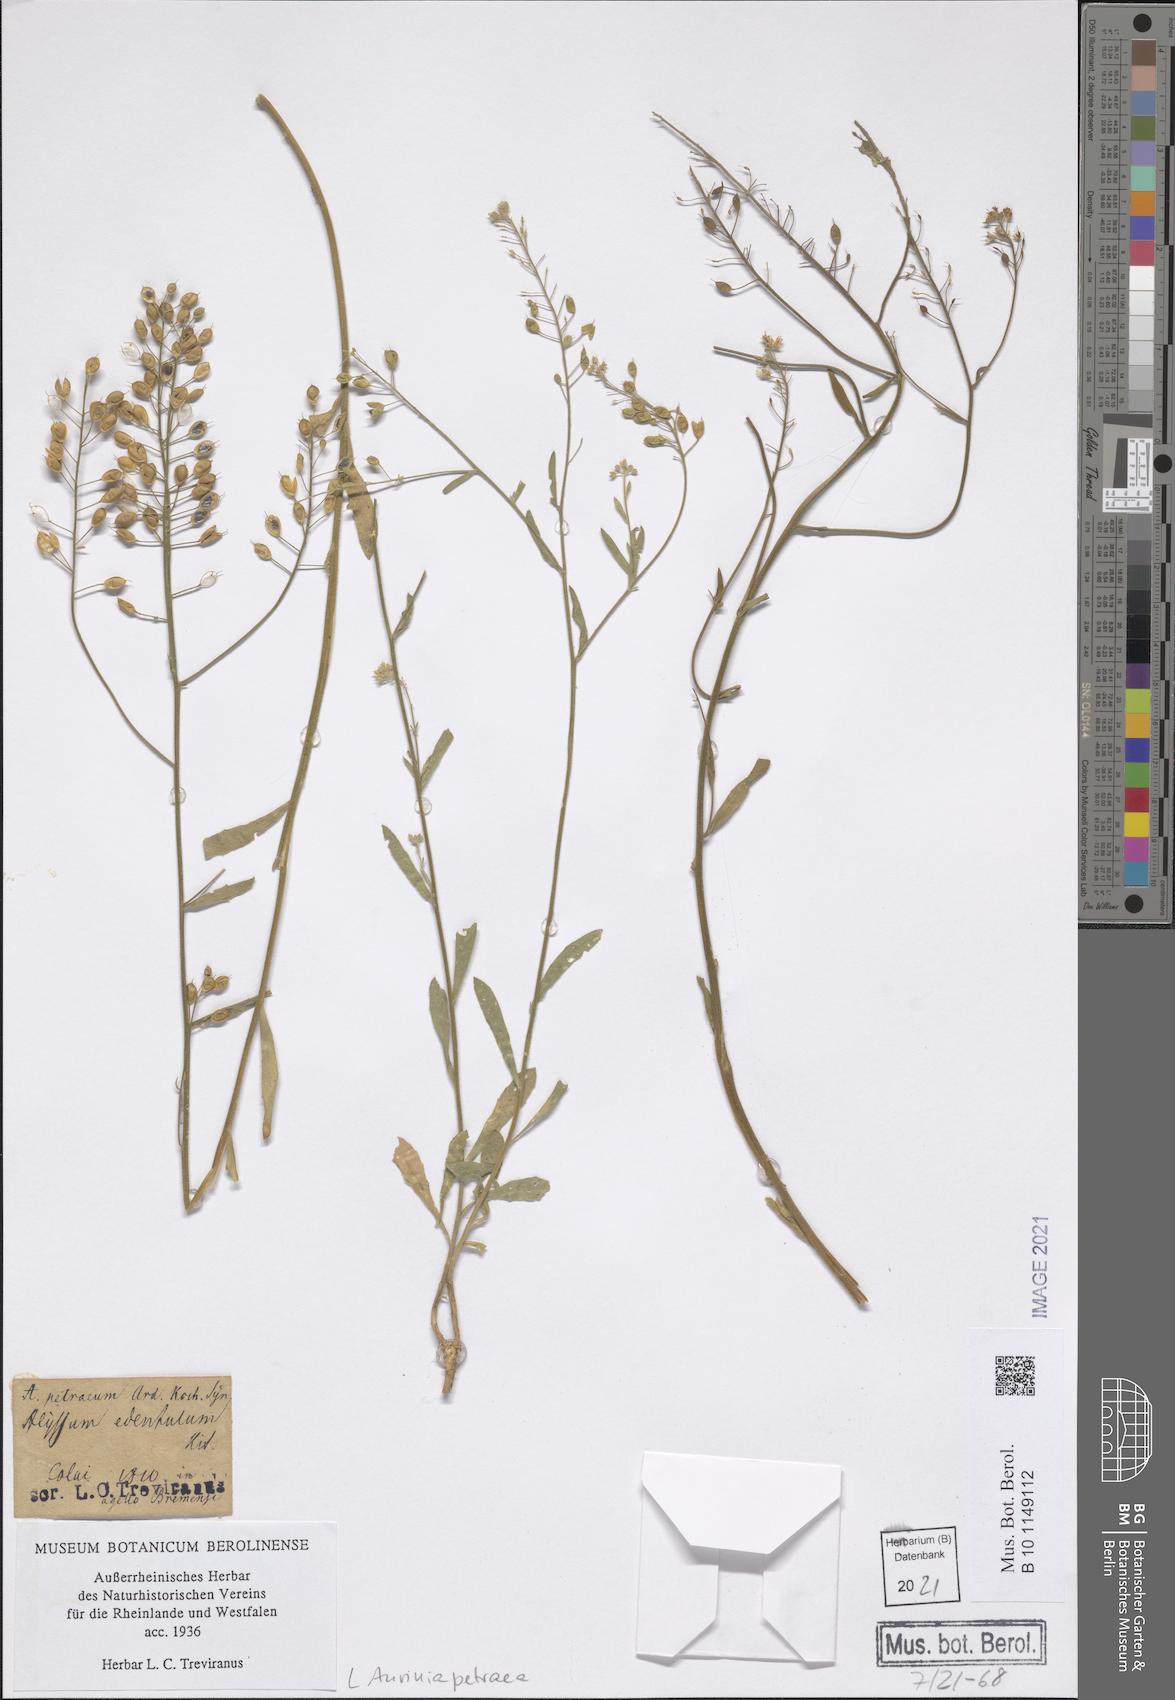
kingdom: Plantae
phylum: Tracheophyta
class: Magnoliopsida
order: Brassicales
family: Brassicaceae
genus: Aurinia
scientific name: Aurinia petraea
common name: Goldentuft
